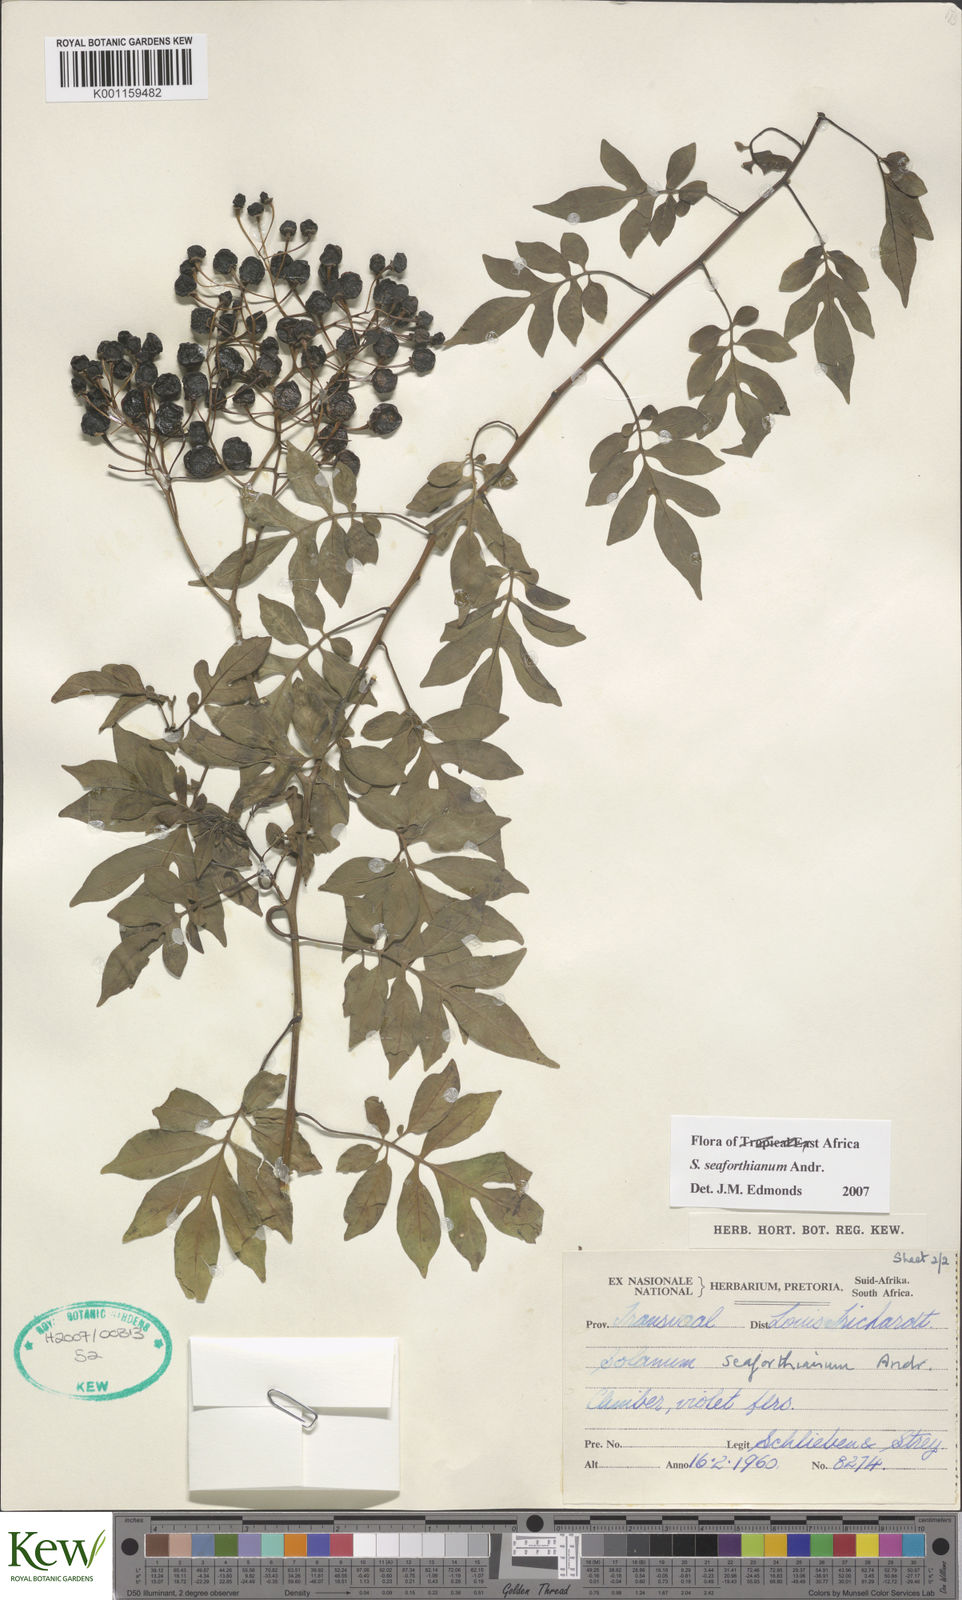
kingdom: Plantae
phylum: Tracheophyta
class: Magnoliopsida
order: Solanales
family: Solanaceae
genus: Solanum
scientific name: Solanum seaforthianum
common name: Brazilian nightshade
